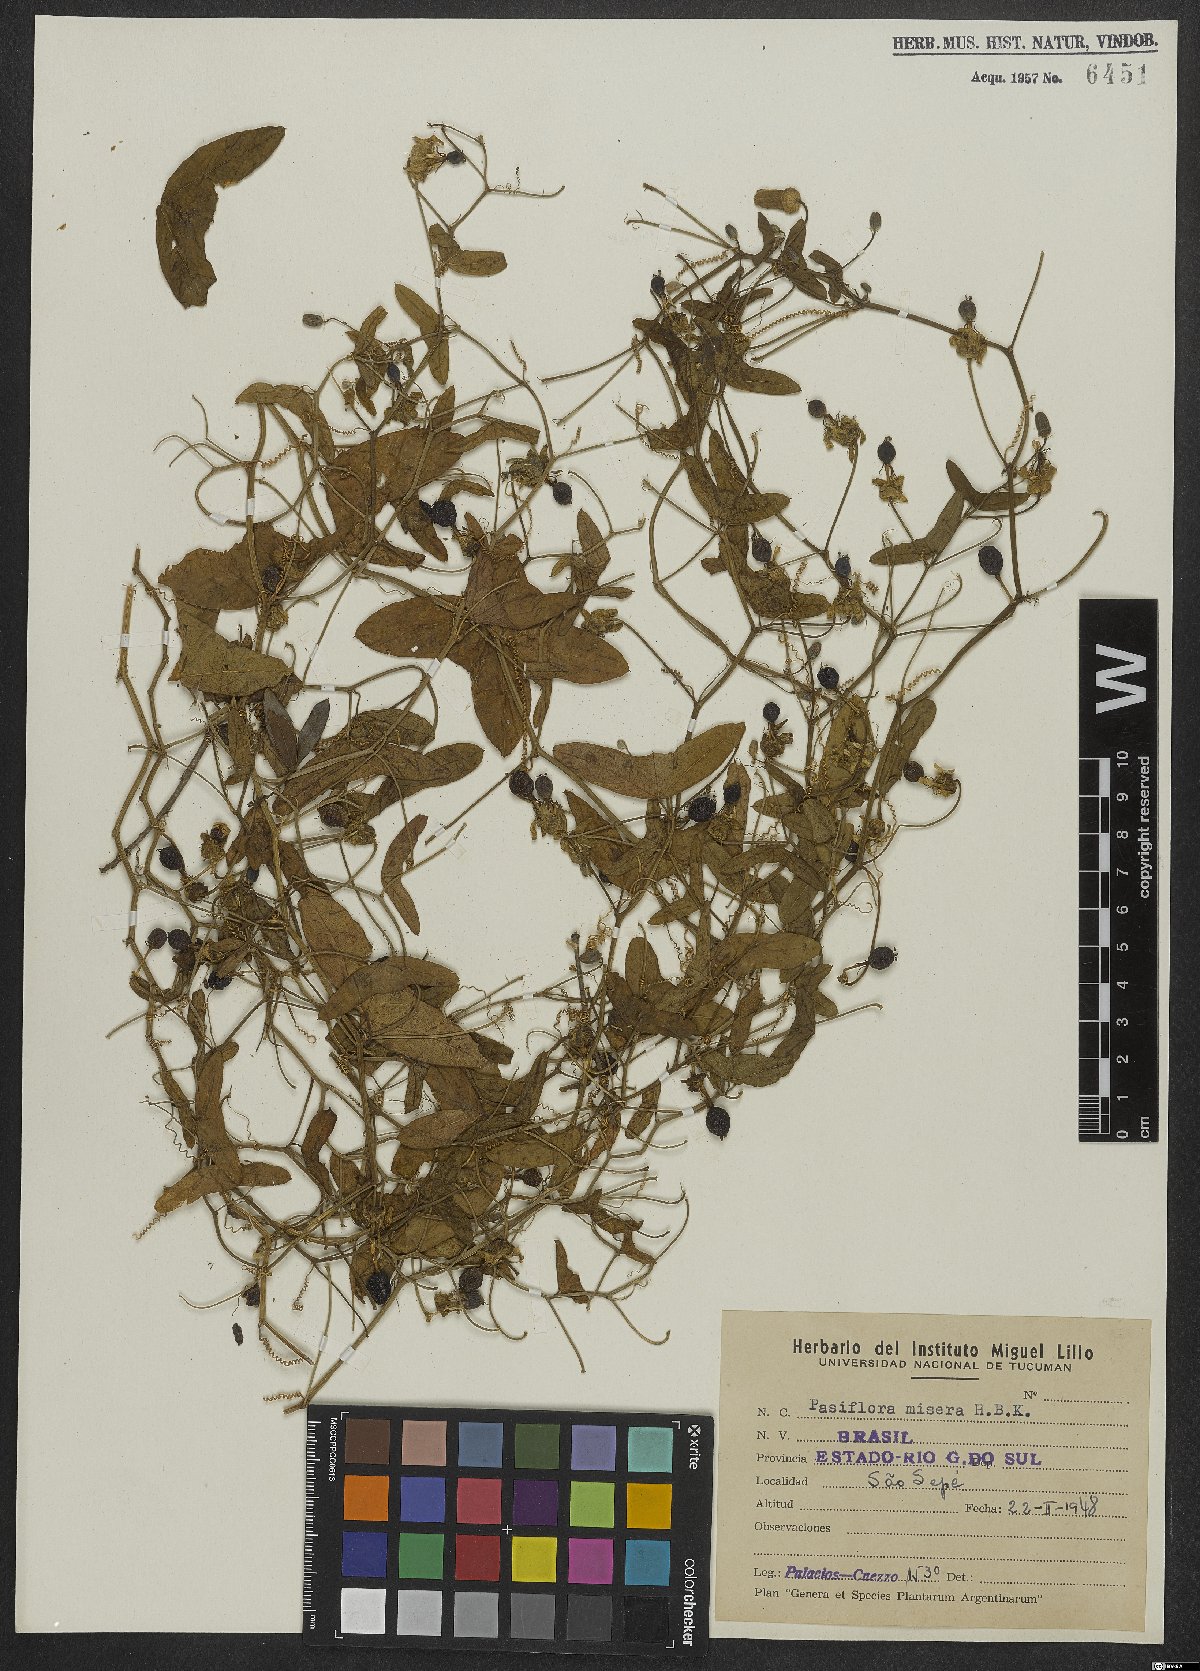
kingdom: Plantae
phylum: Tracheophyta
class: Magnoliopsida
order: Malpighiales
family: Passifloraceae
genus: Passiflora
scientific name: Passiflora misera
